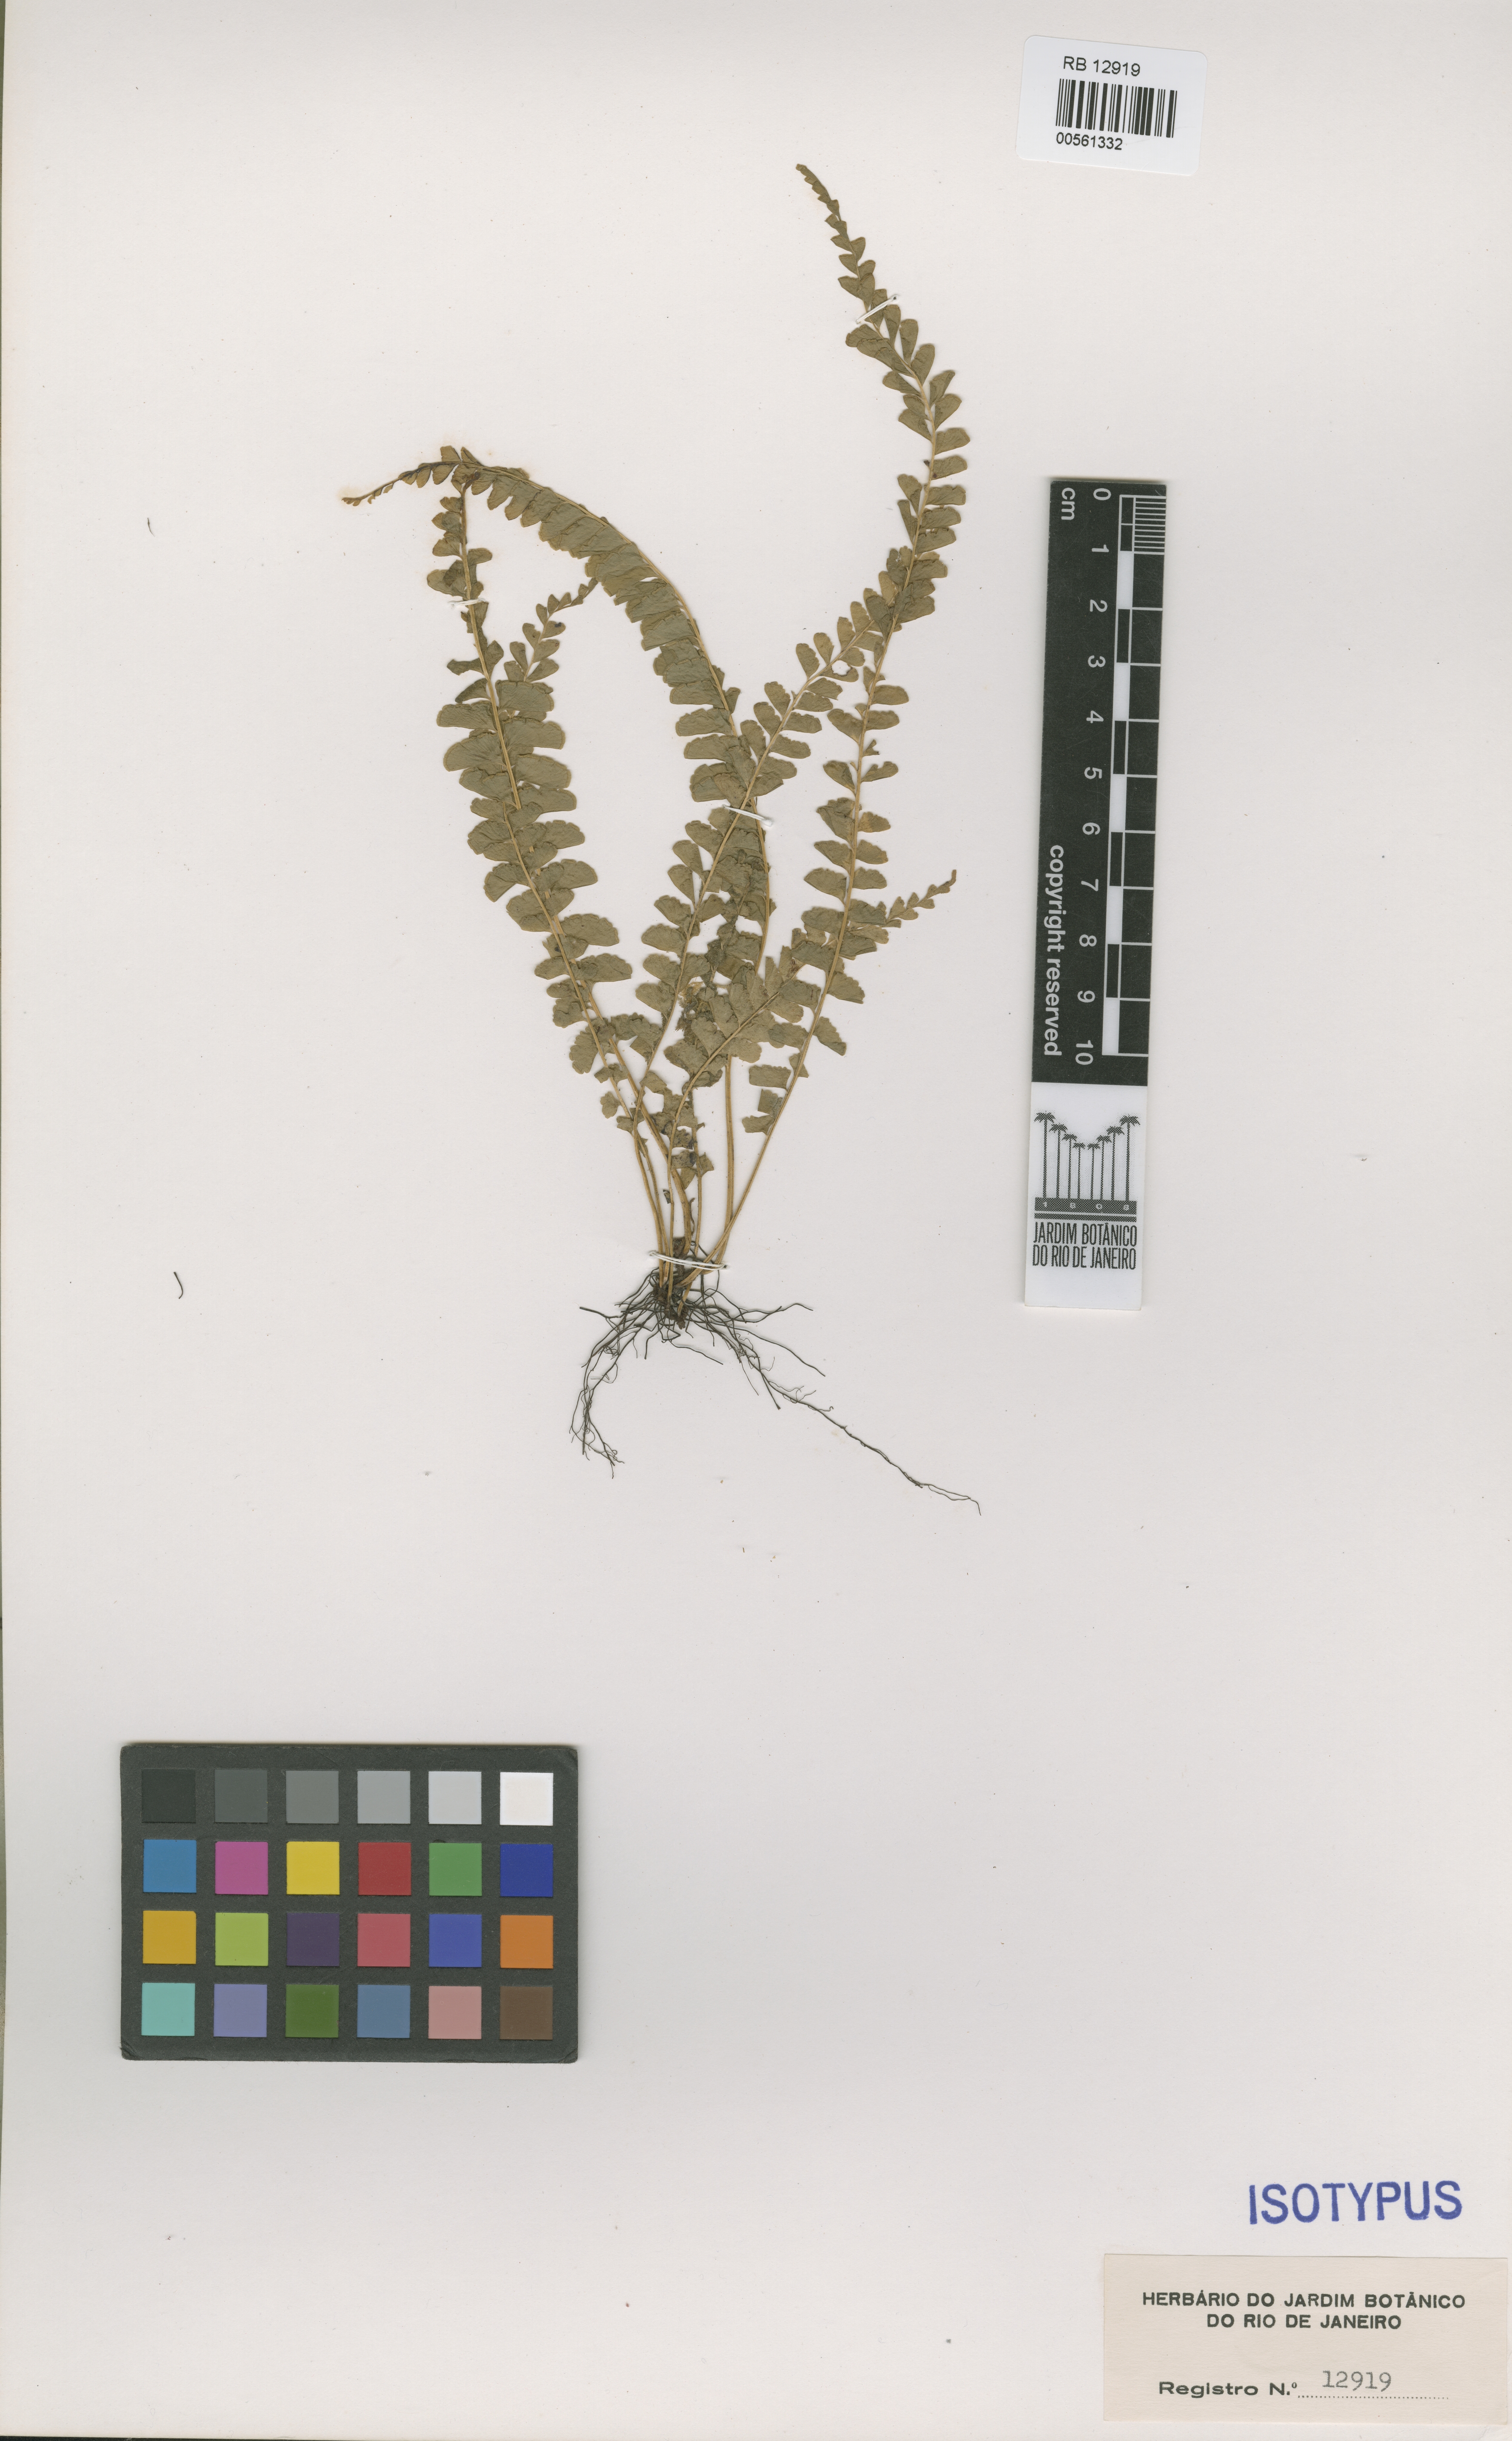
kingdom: Plantae
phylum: Tracheophyta
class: Polypodiopsida
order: Polypodiales
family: Lindsaeaceae
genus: Lindsaea
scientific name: Lindsaea lucida
